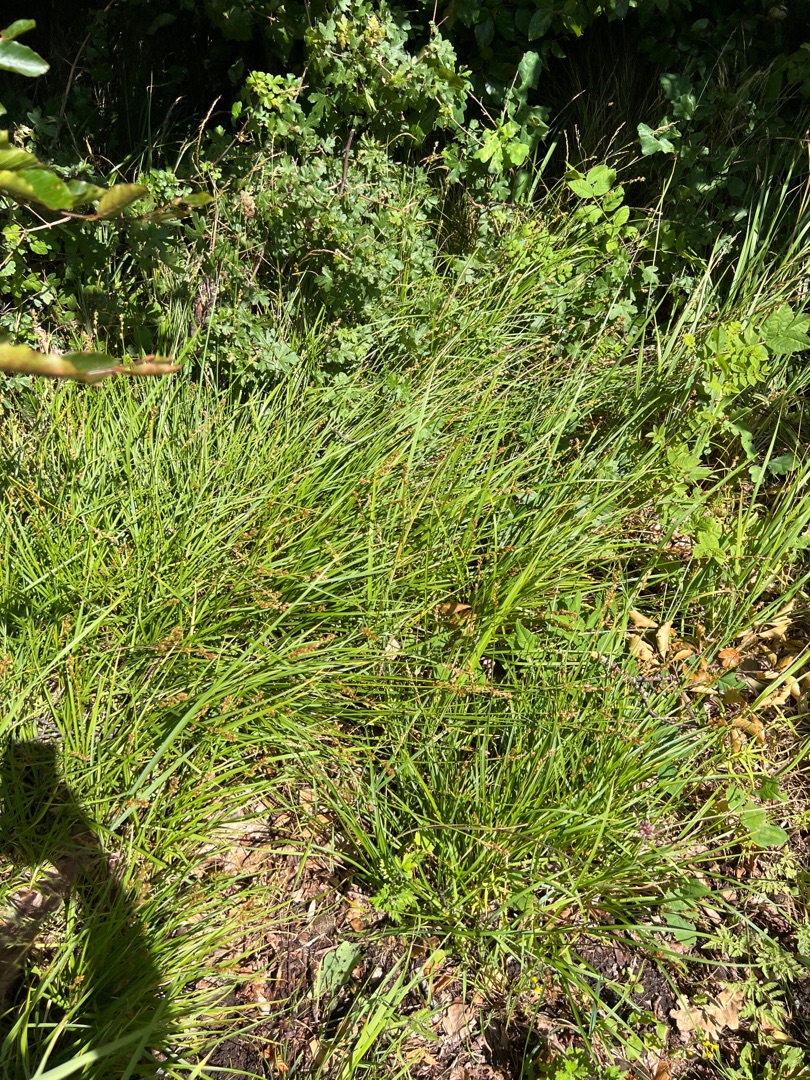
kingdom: Plantae
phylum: Tracheophyta
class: Liliopsida
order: Poales
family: Cyperaceae
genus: Carex
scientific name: Carex leersii
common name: Mellembrudt star (underart)
